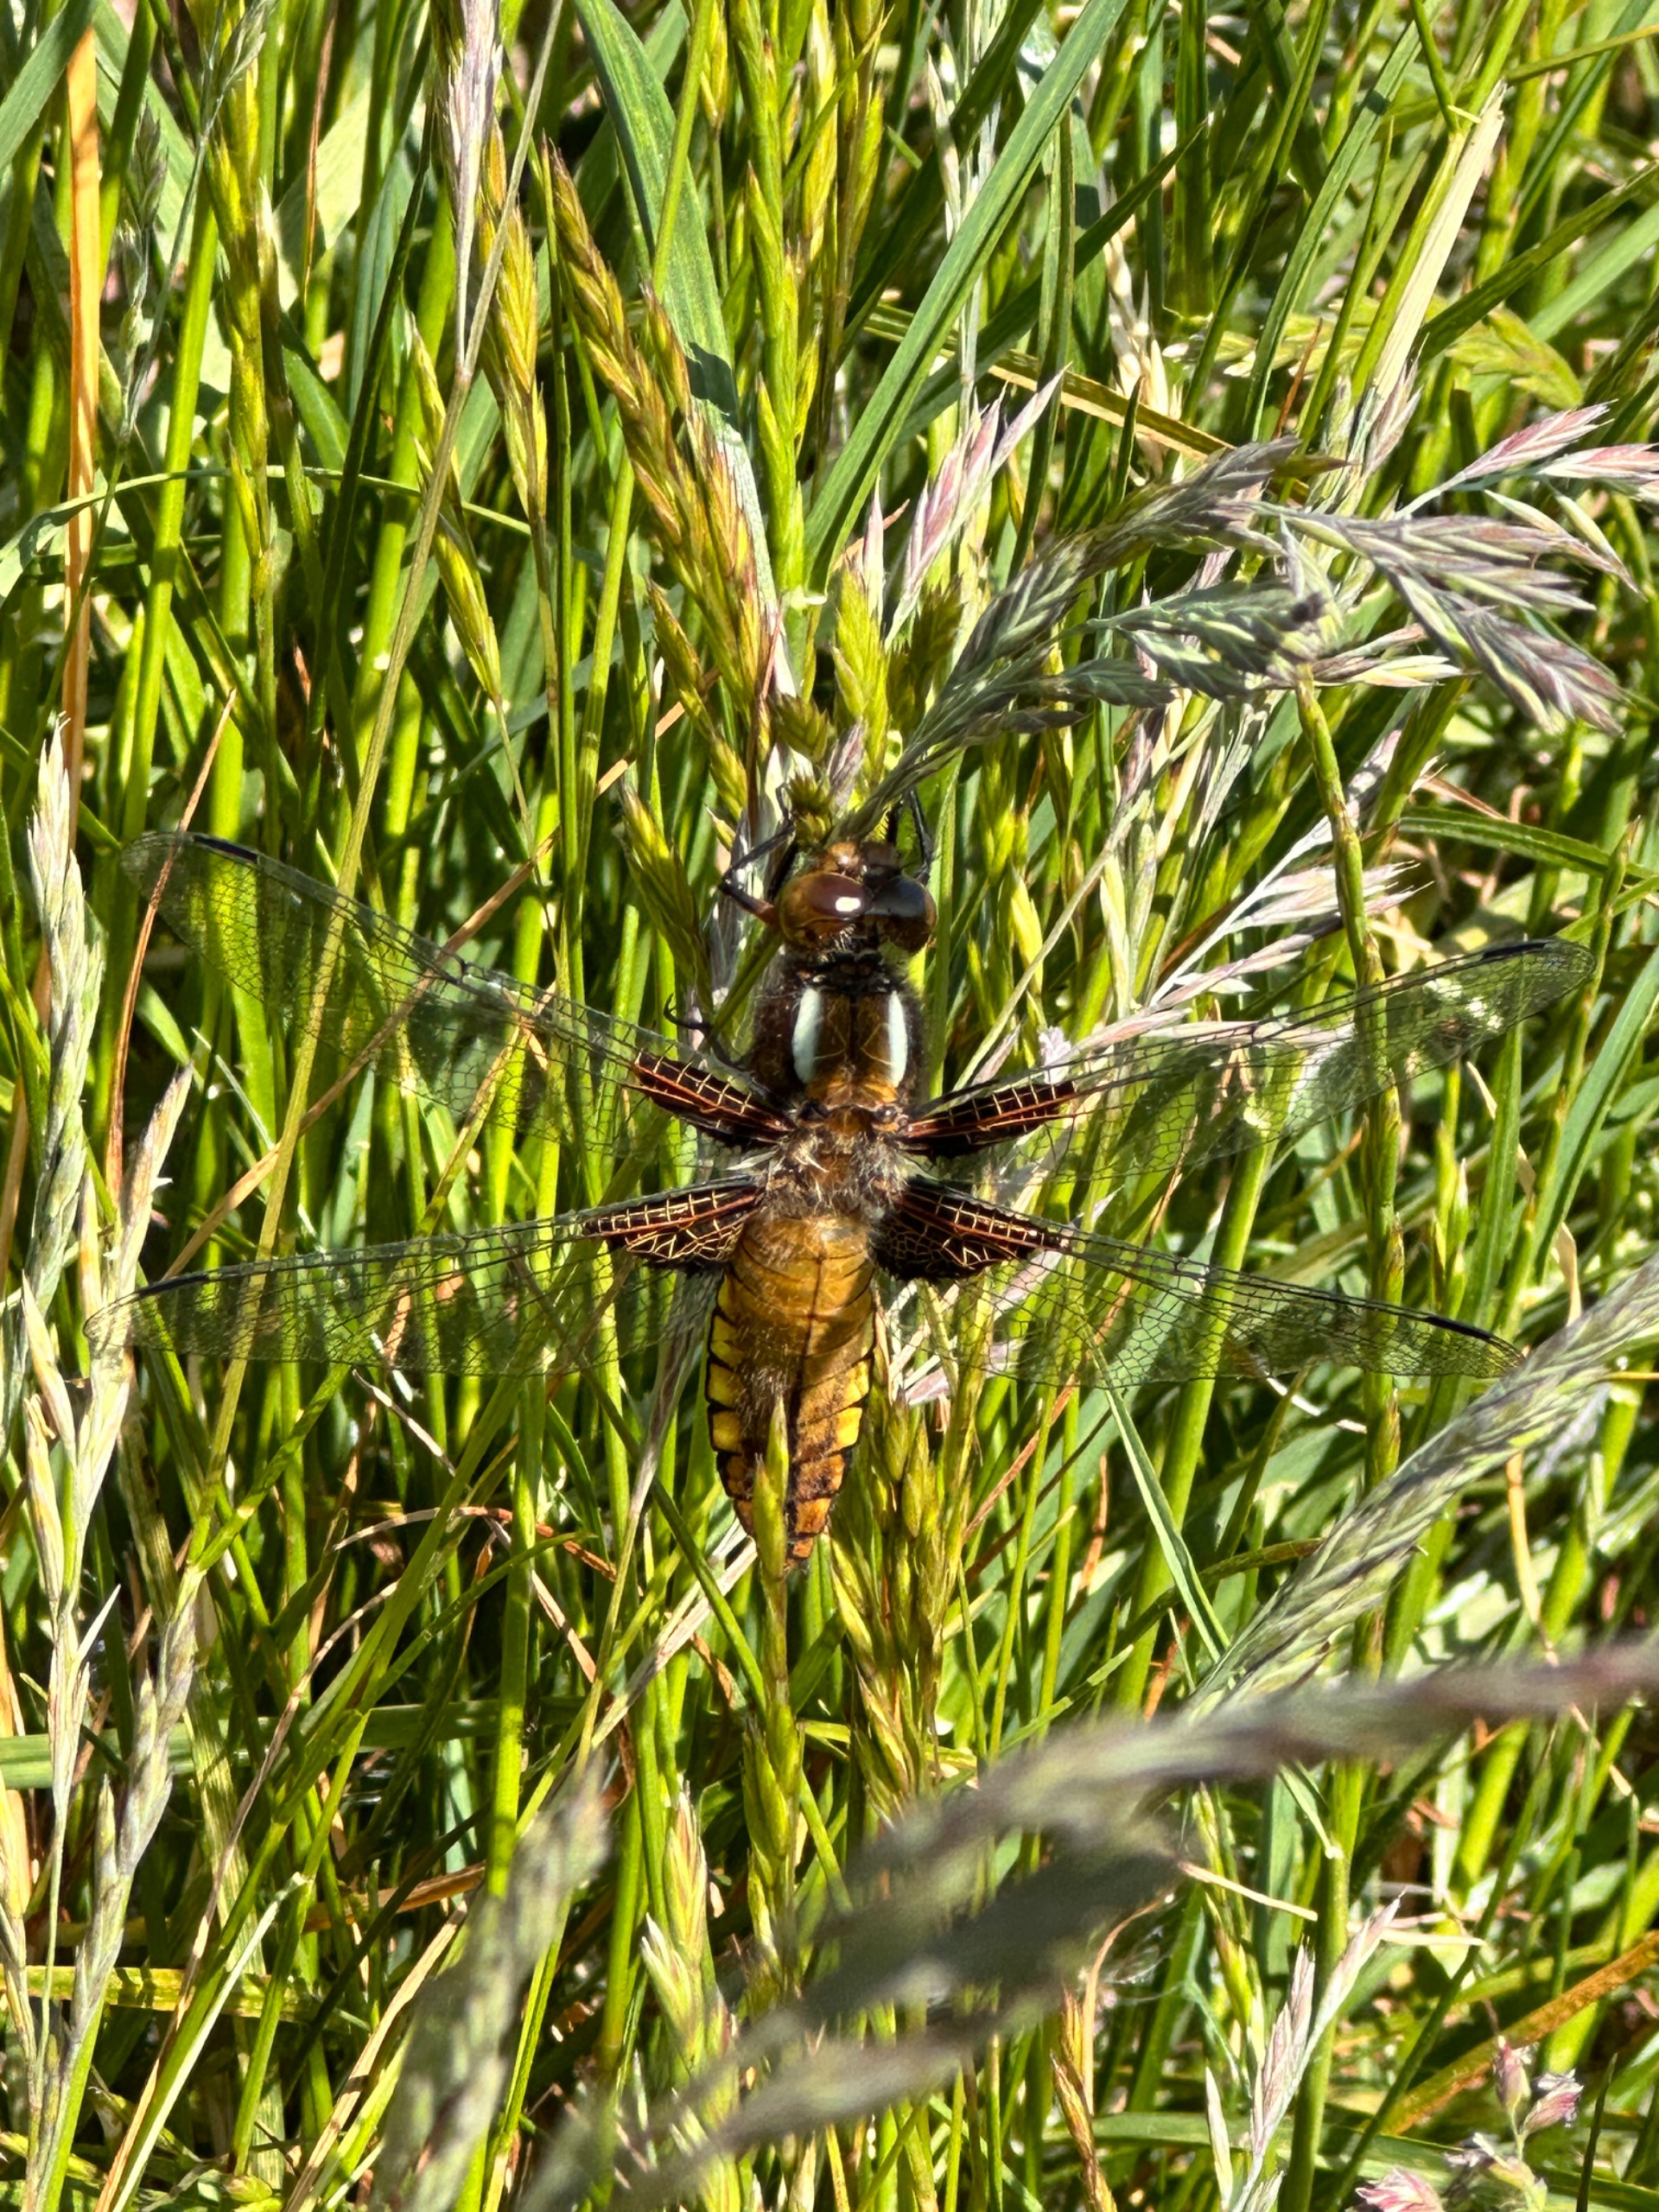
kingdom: Animalia
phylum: Arthropoda
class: Insecta
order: Odonata
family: Libellulidae
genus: Libellula
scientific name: Libellula depressa
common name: Blå libel
